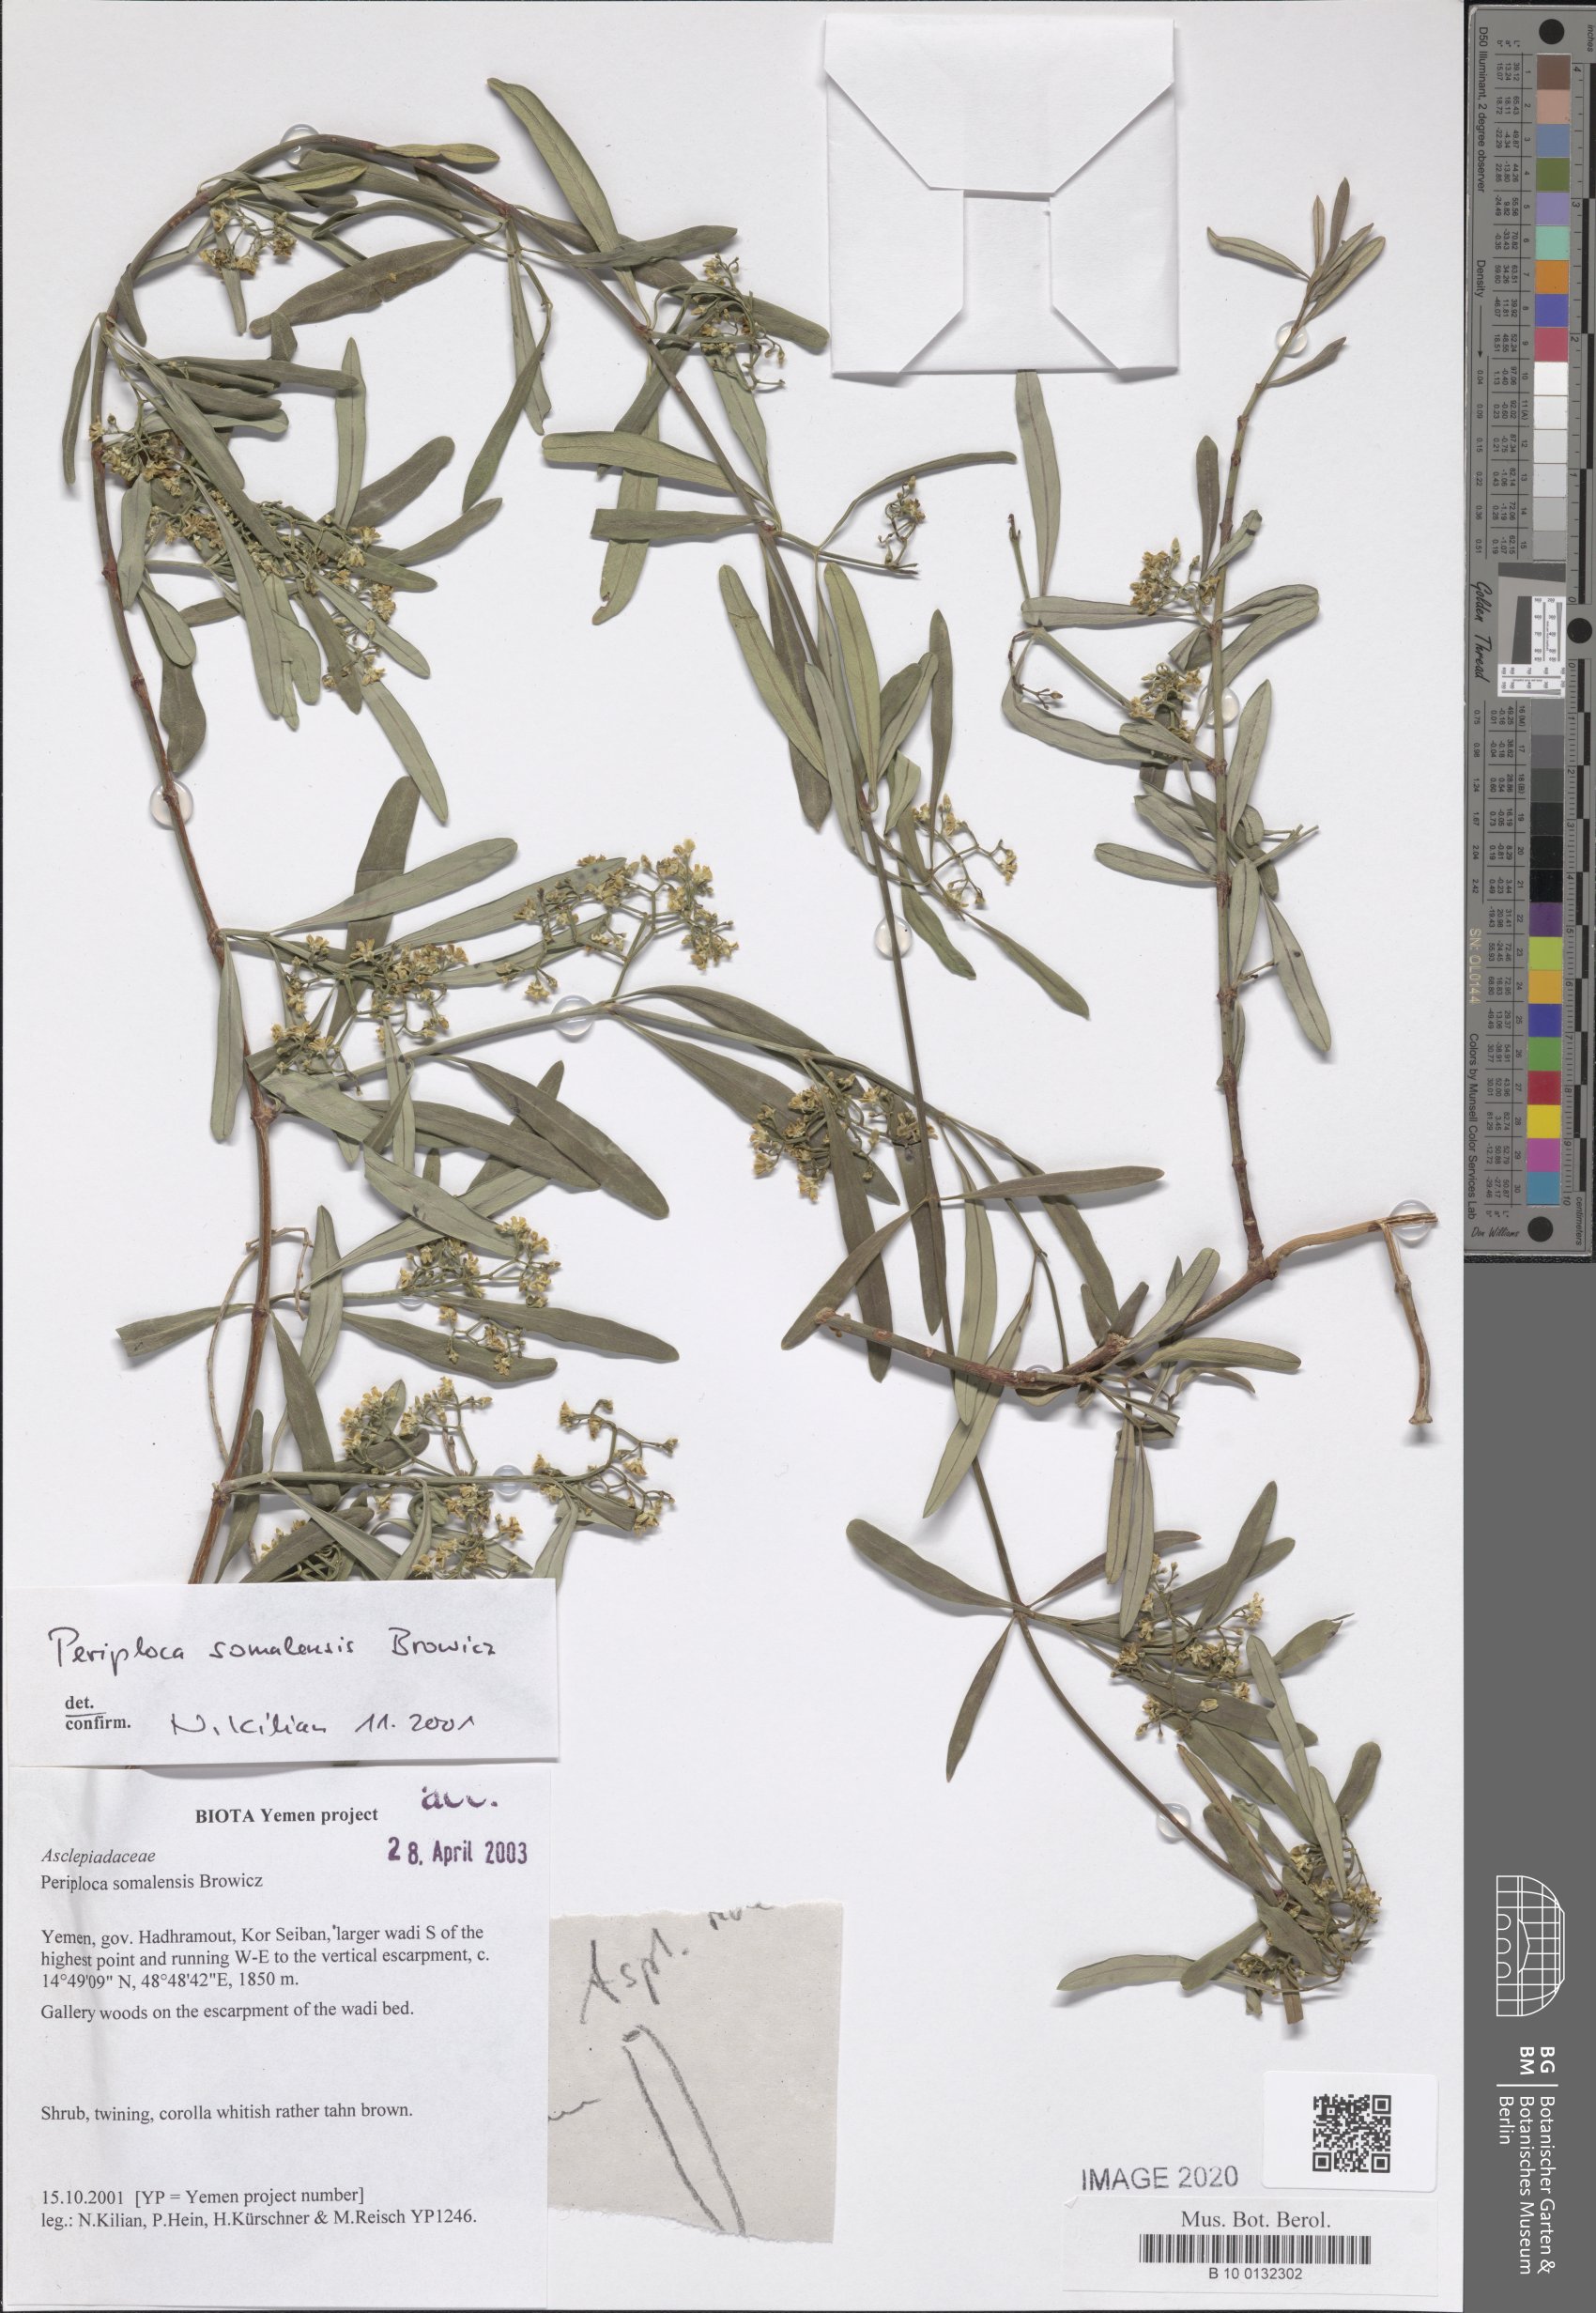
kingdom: Plantae
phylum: Tracheophyta
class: Magnoliopsida
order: Gentianales
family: Apocynaceae
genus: Periploca
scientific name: Periploca somaliensis
